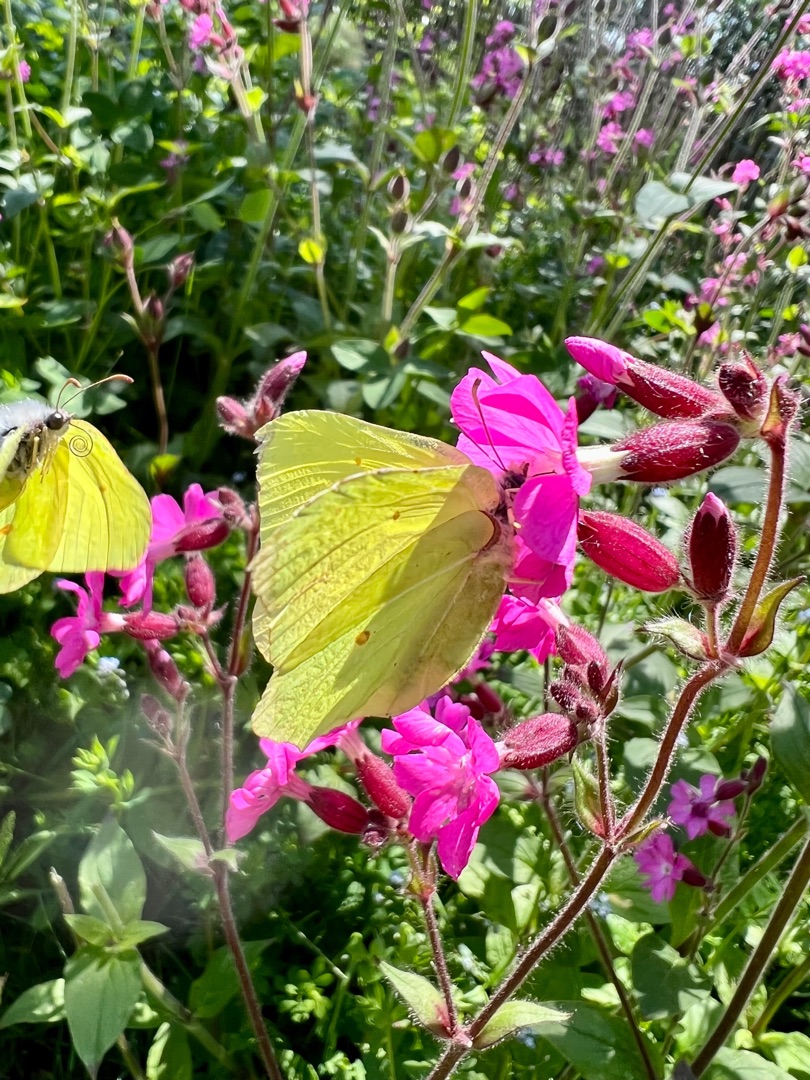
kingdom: Animalia
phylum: Arthropoda
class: Insecta
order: Lepidoptera
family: Pieridae
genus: Gonepteryx
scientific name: Gonepteryx rhamni
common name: Citronsommerfugl
